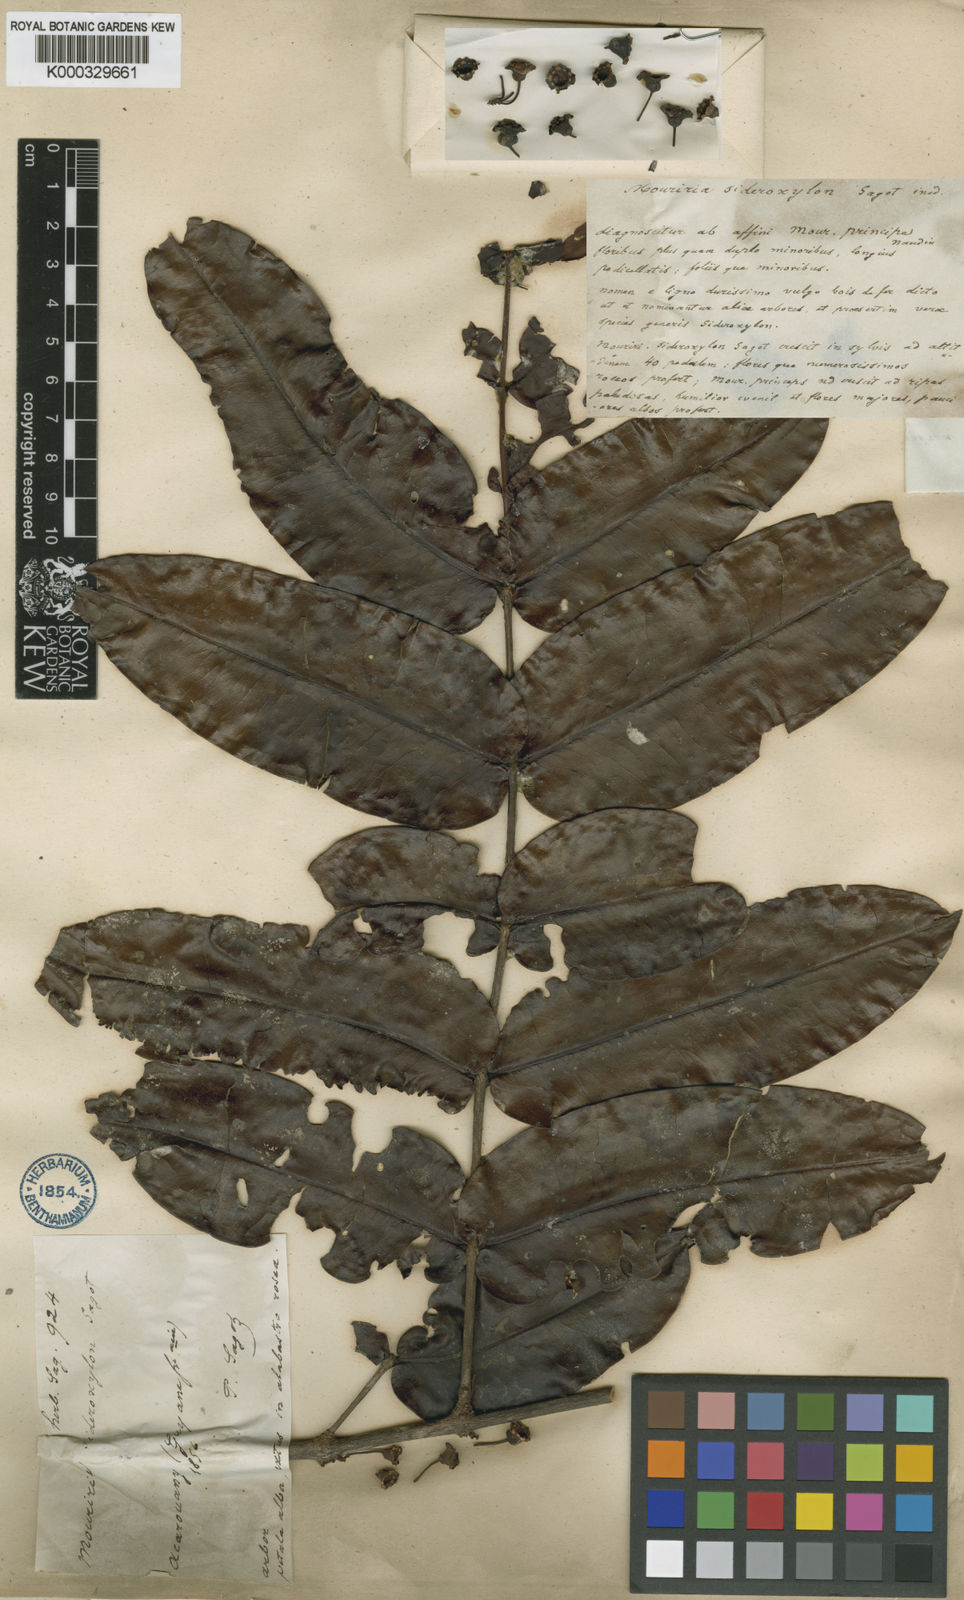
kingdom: Plantae
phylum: Tracheophyta
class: Magnoliopsida
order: Myrtales
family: Melastomataceae
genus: Mouriri
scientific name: Mouriri sideroxylon
